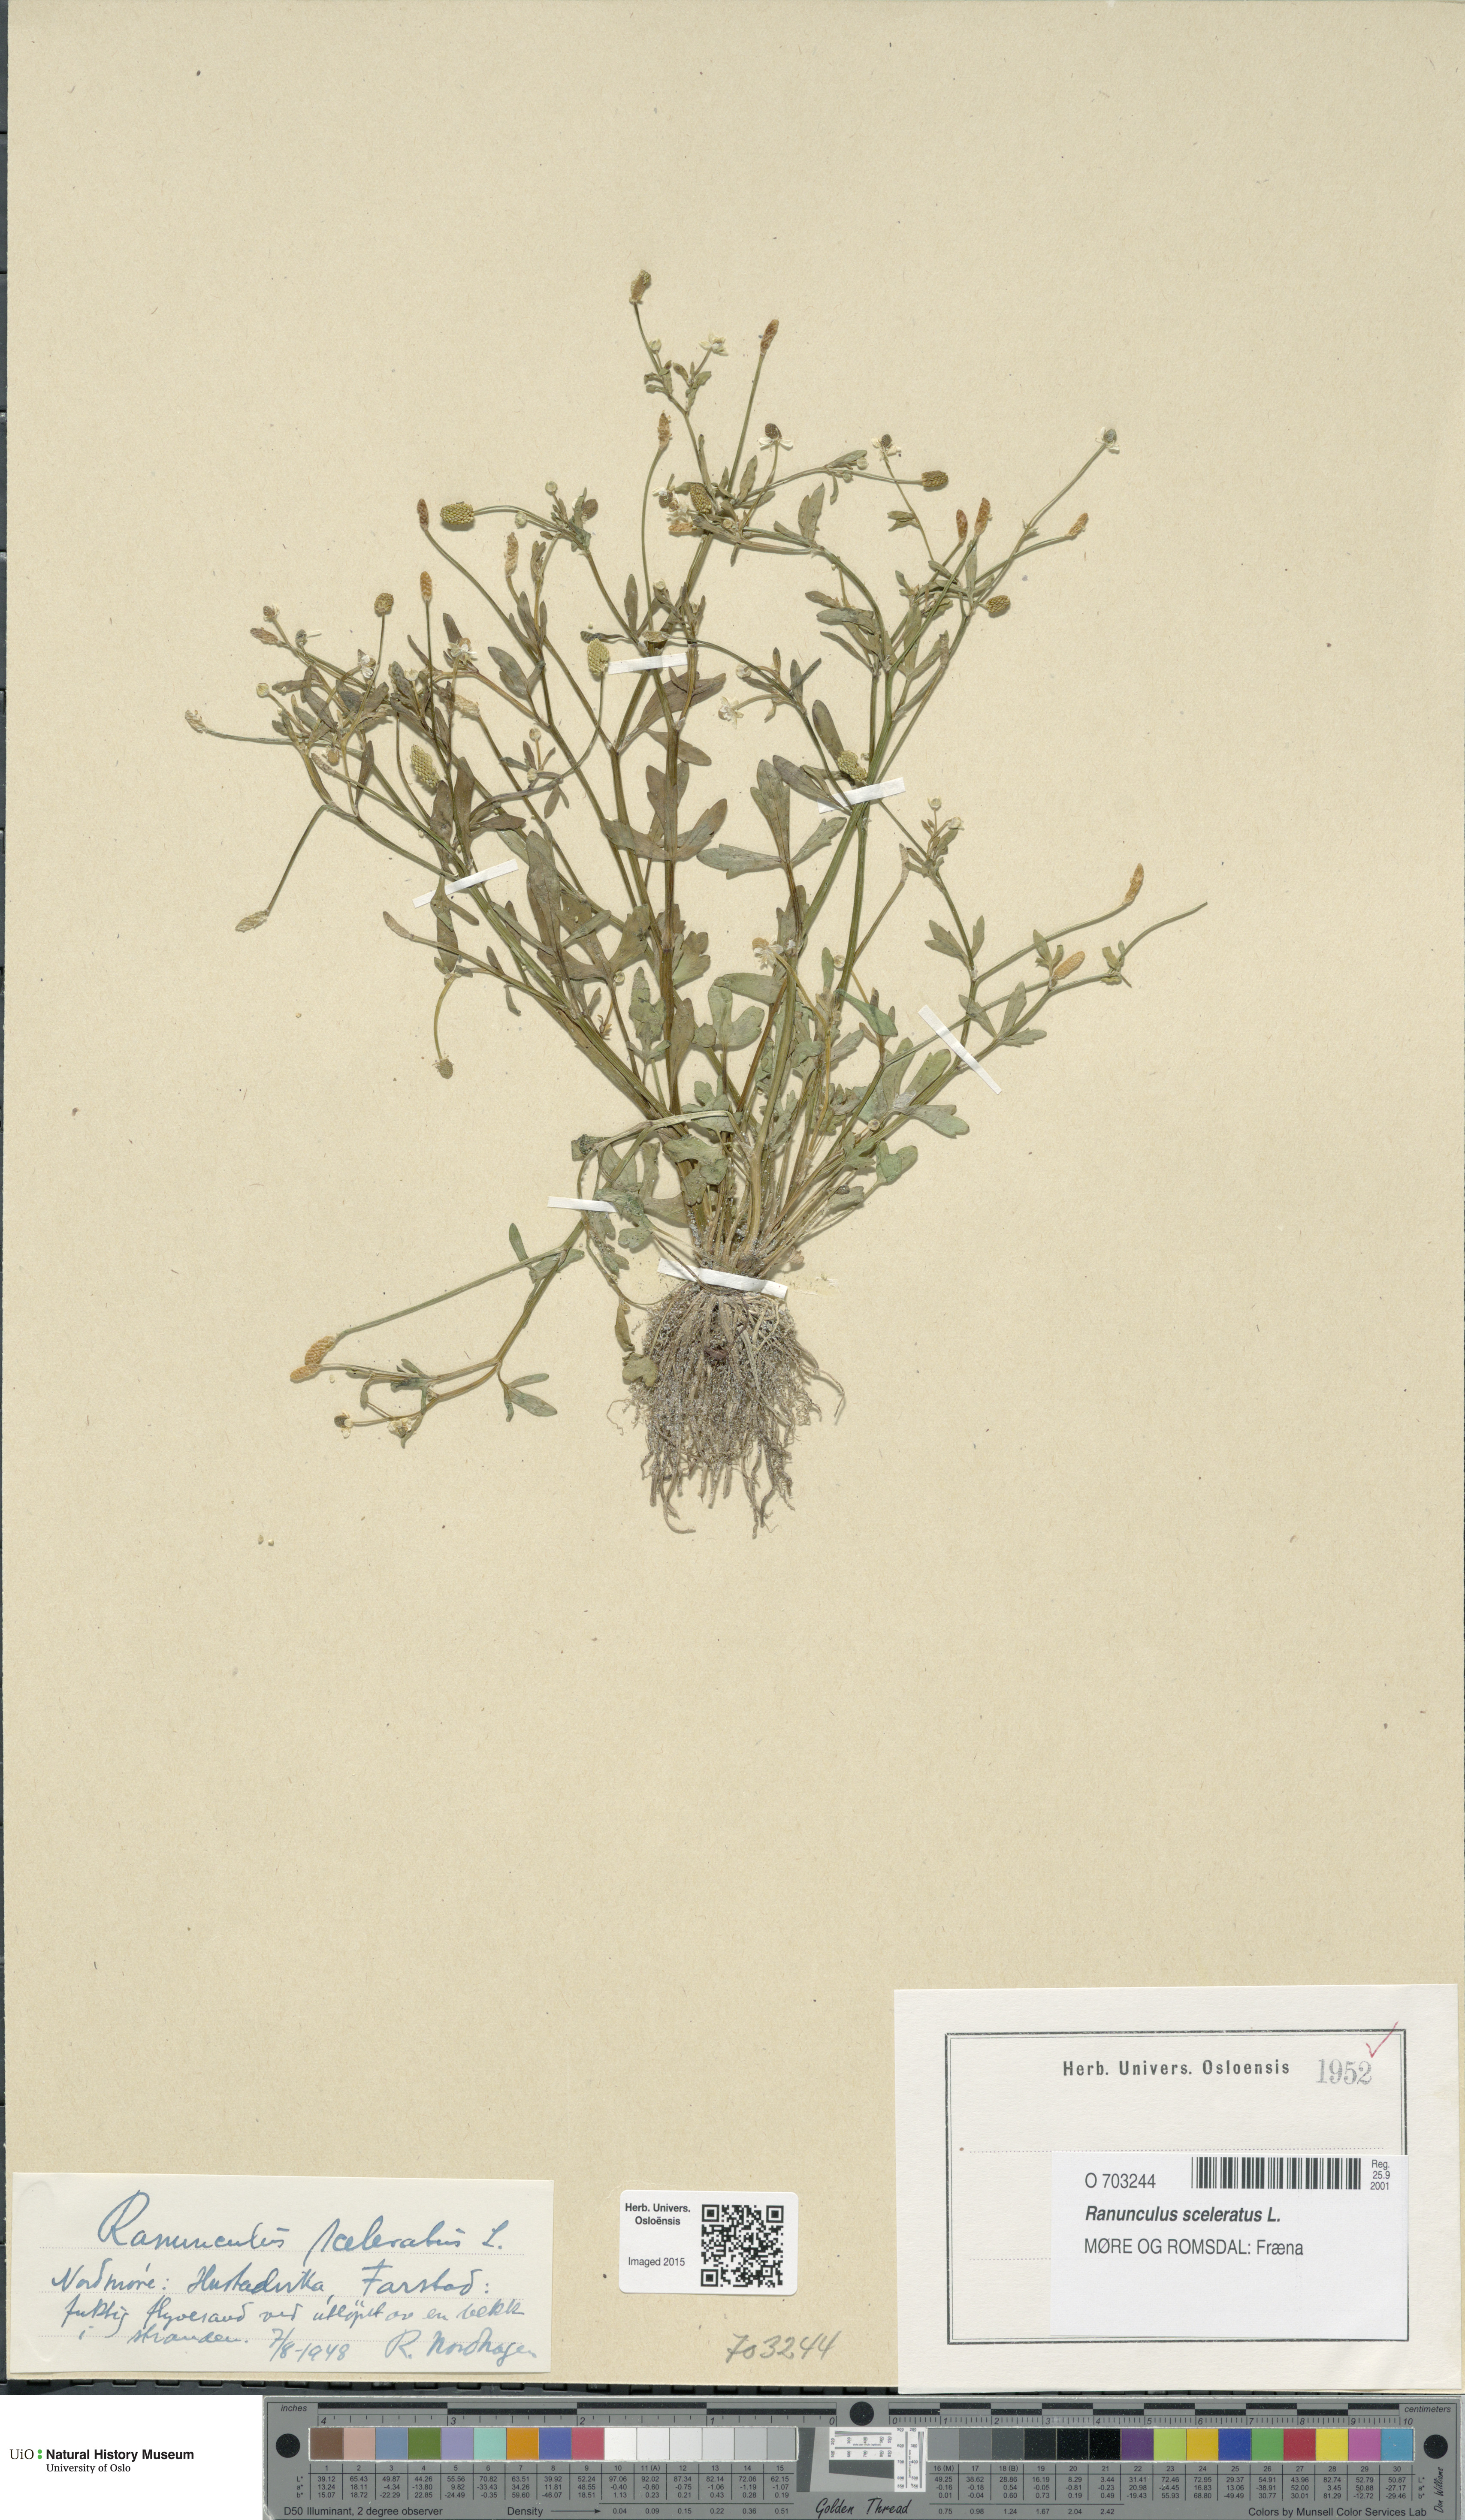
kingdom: Plantae
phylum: Tracheophyta
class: Magnoliopsida
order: Ranunculales
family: Ranunculaceae
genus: Ranunculus
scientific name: Ranunculus sceleratus
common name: Celery-leaved buttercup
